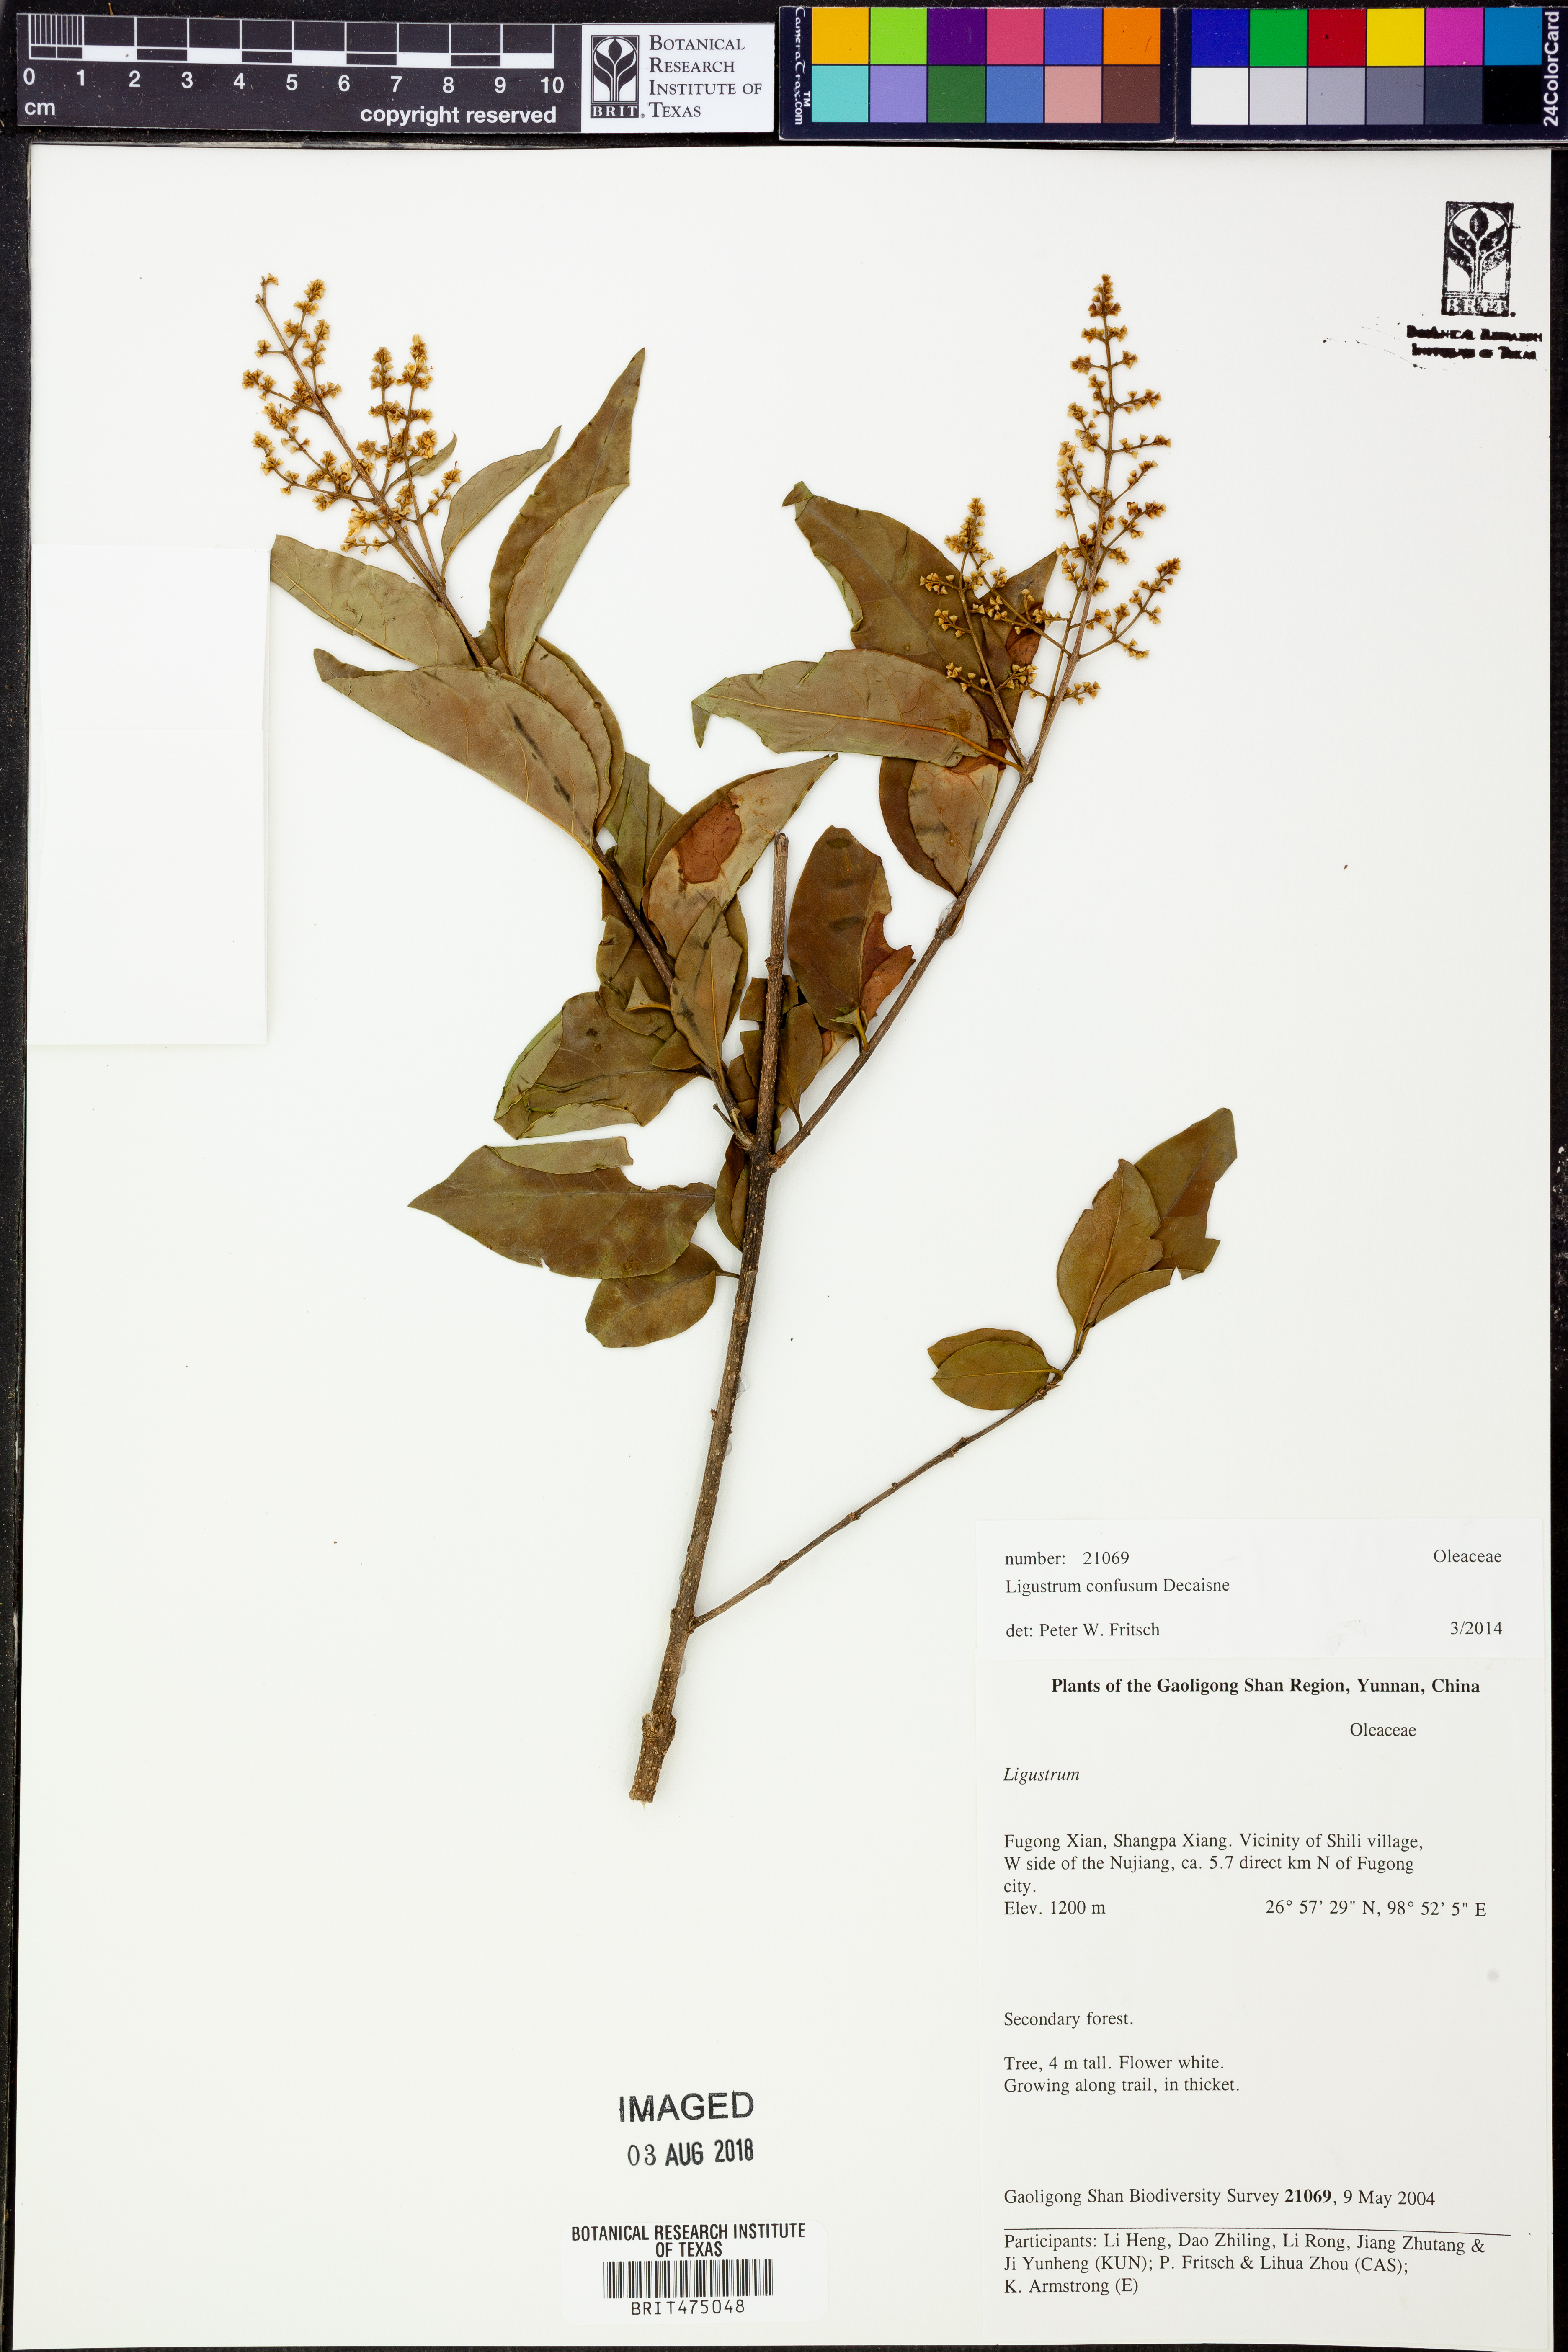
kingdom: Plantae
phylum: Tracheophyta
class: Magnoliopsida
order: Lamiales
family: Oleaceae
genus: Ligustrum
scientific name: Ligustrum confusum
